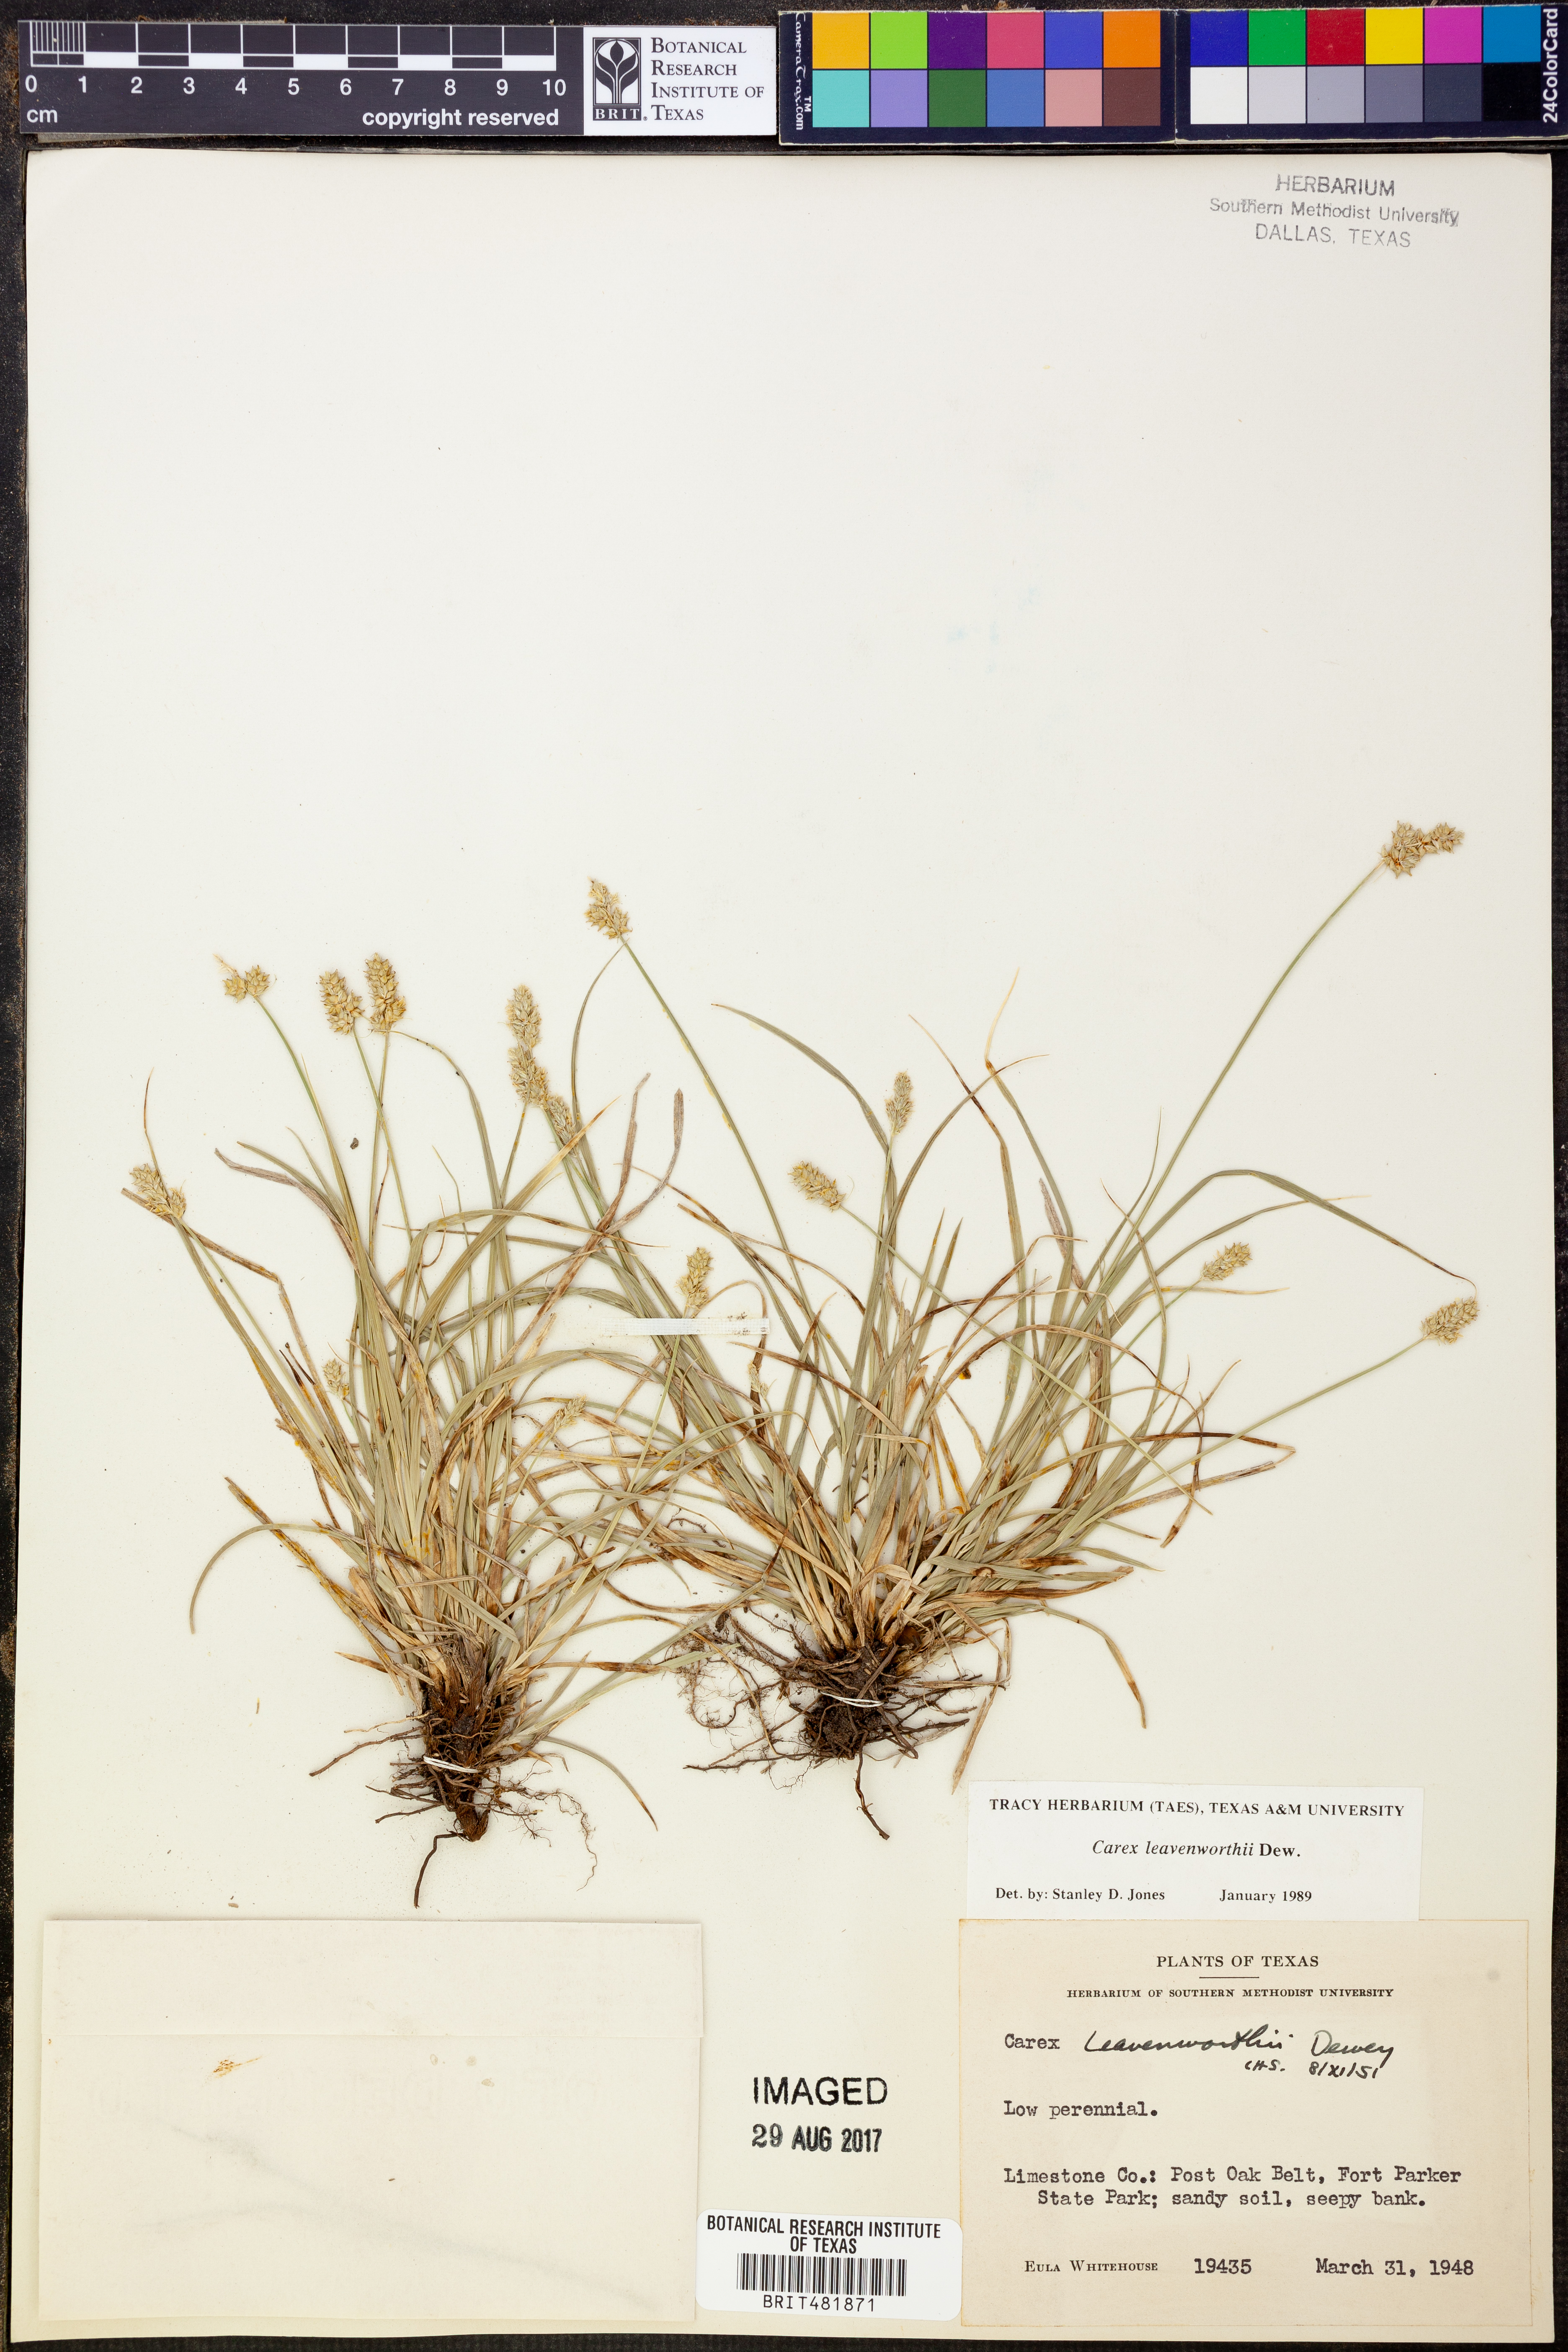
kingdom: Plantae
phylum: Tracheophyta
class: Liliopsida
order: Poales
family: Cyperaceae
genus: Carex
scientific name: Carex leavenworthii
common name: Leavenworth's bracted sedge
